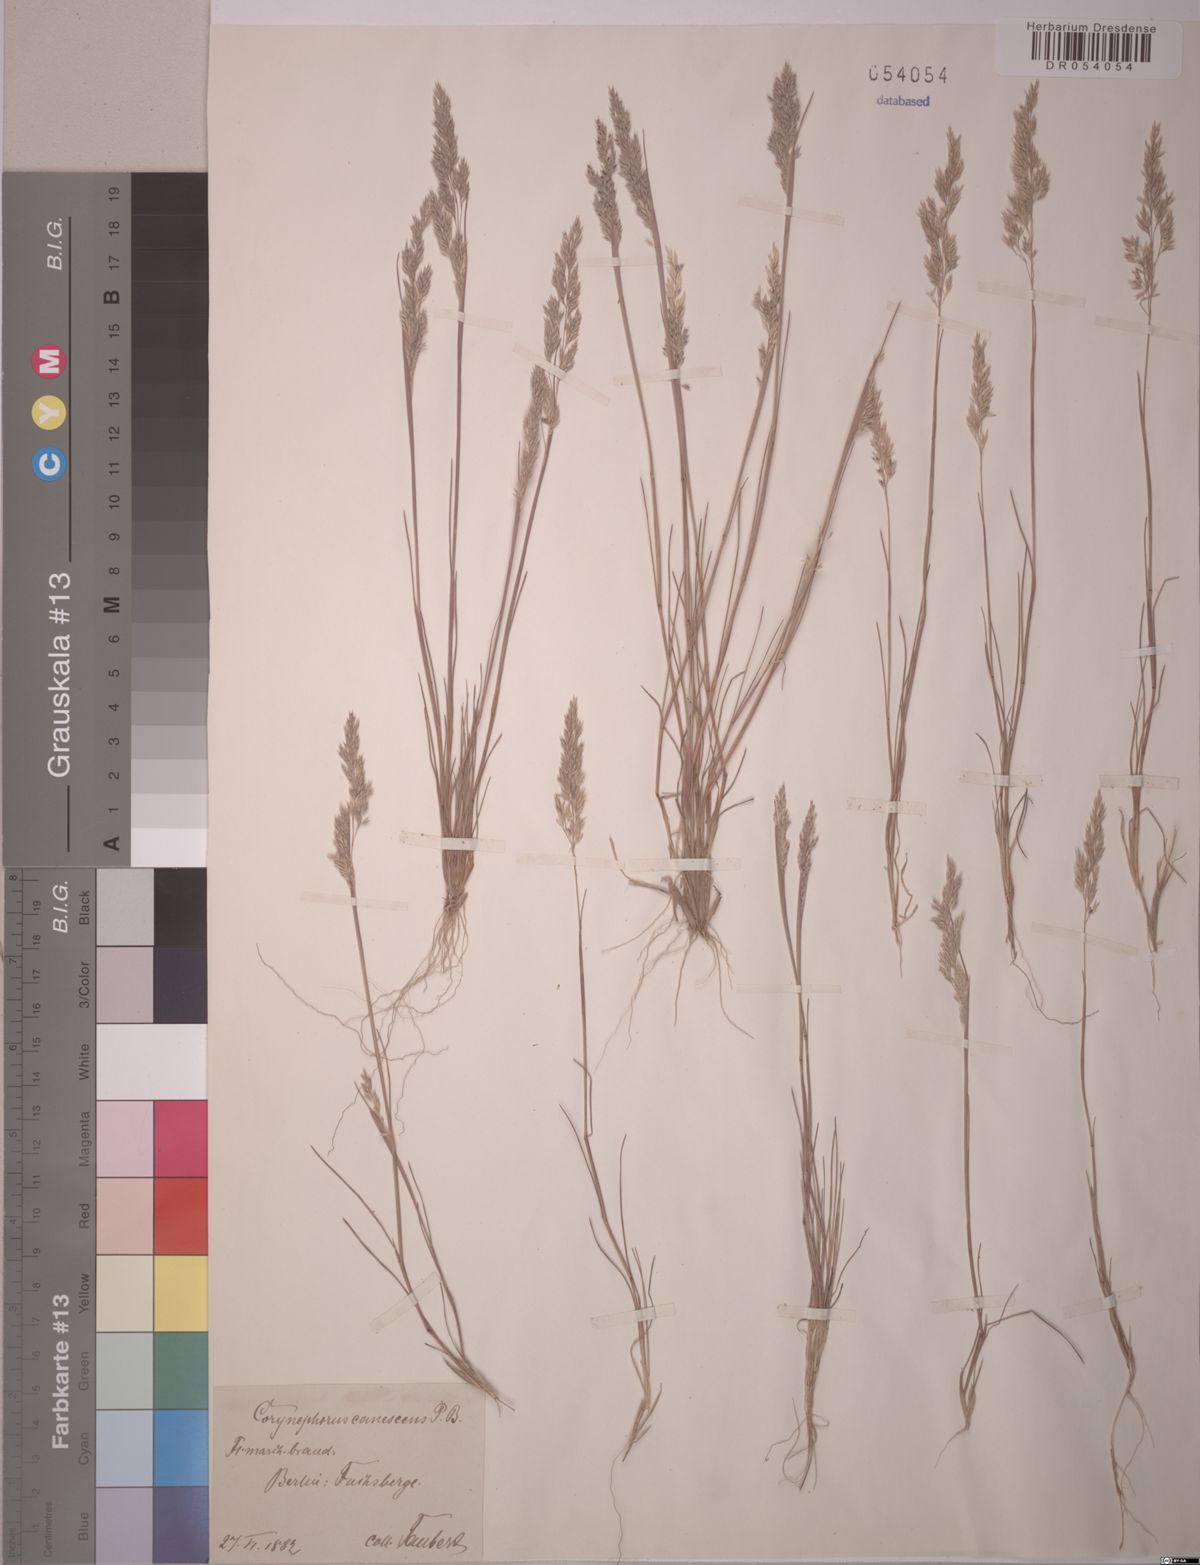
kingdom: Plantae
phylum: Tracheophyta
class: Liliopsida
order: Poales
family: Poaceae
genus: Corynephorus
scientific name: Corynephorus canescens
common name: Grey hair-grass
